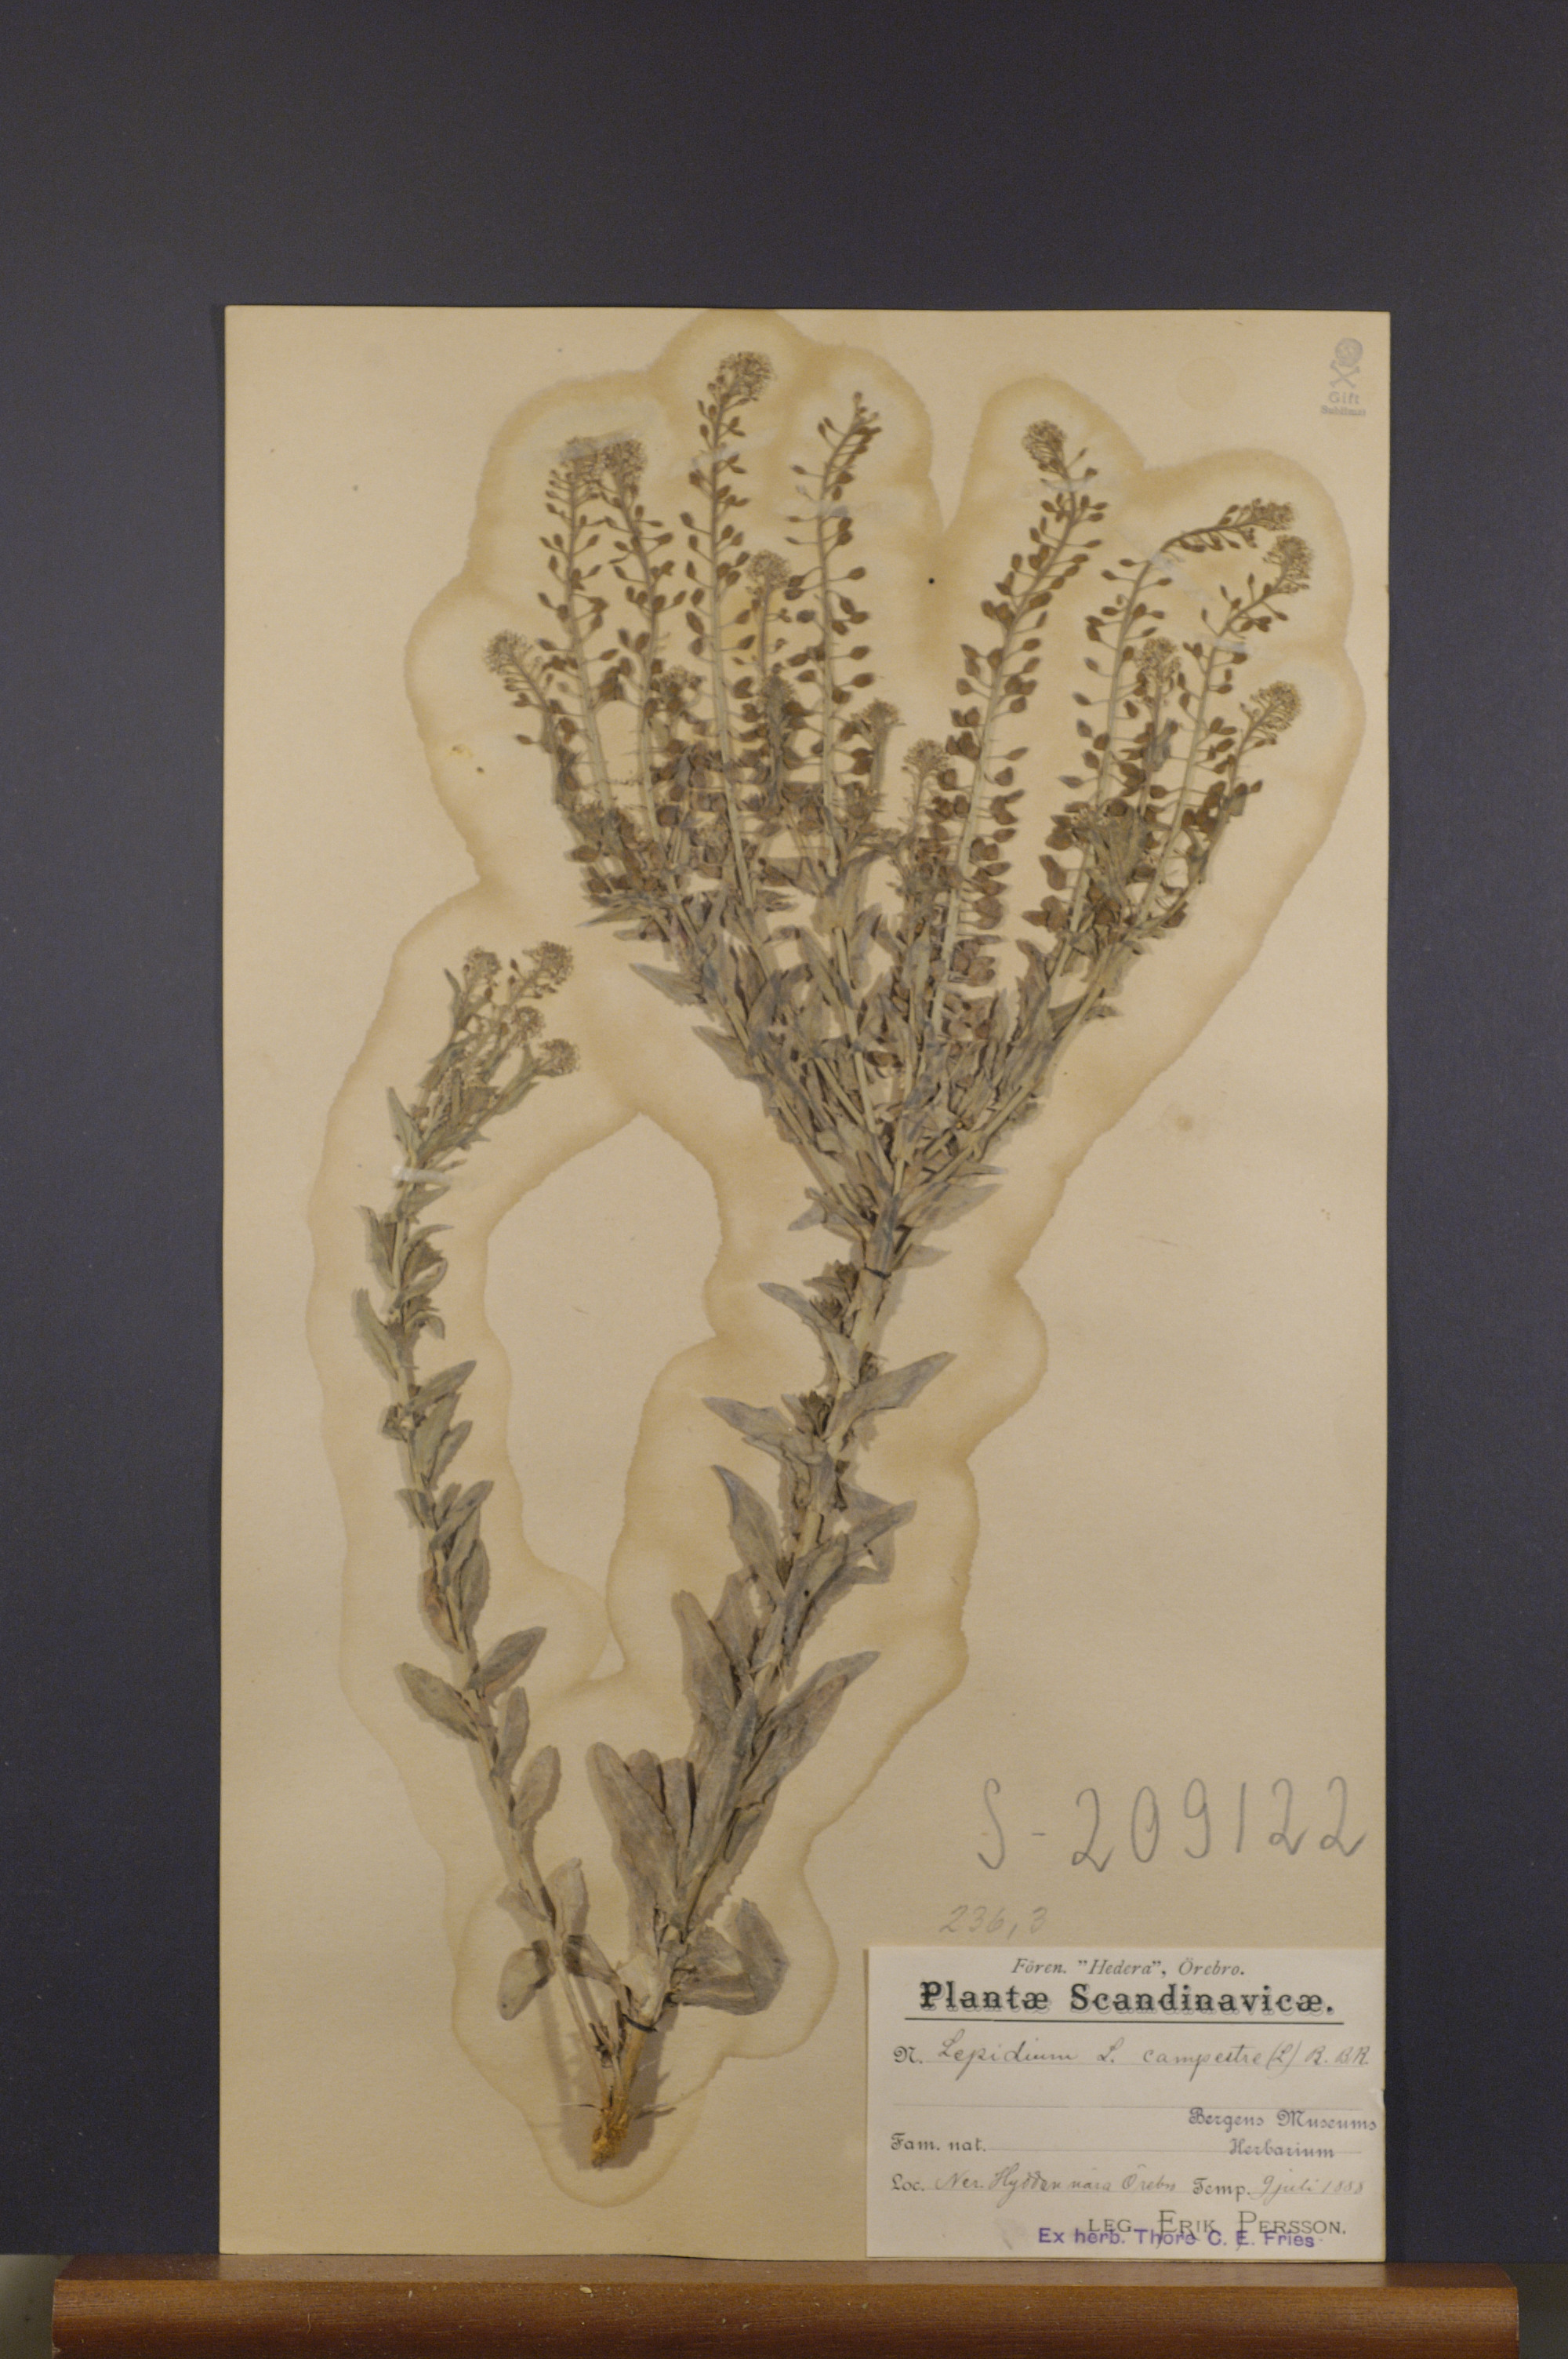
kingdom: Plantae
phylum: Tracheophyta
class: Magnoliopsida
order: Brassicales
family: Brassicaceae
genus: Lepidium
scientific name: Lepidium campestre
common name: Field pepperwort
